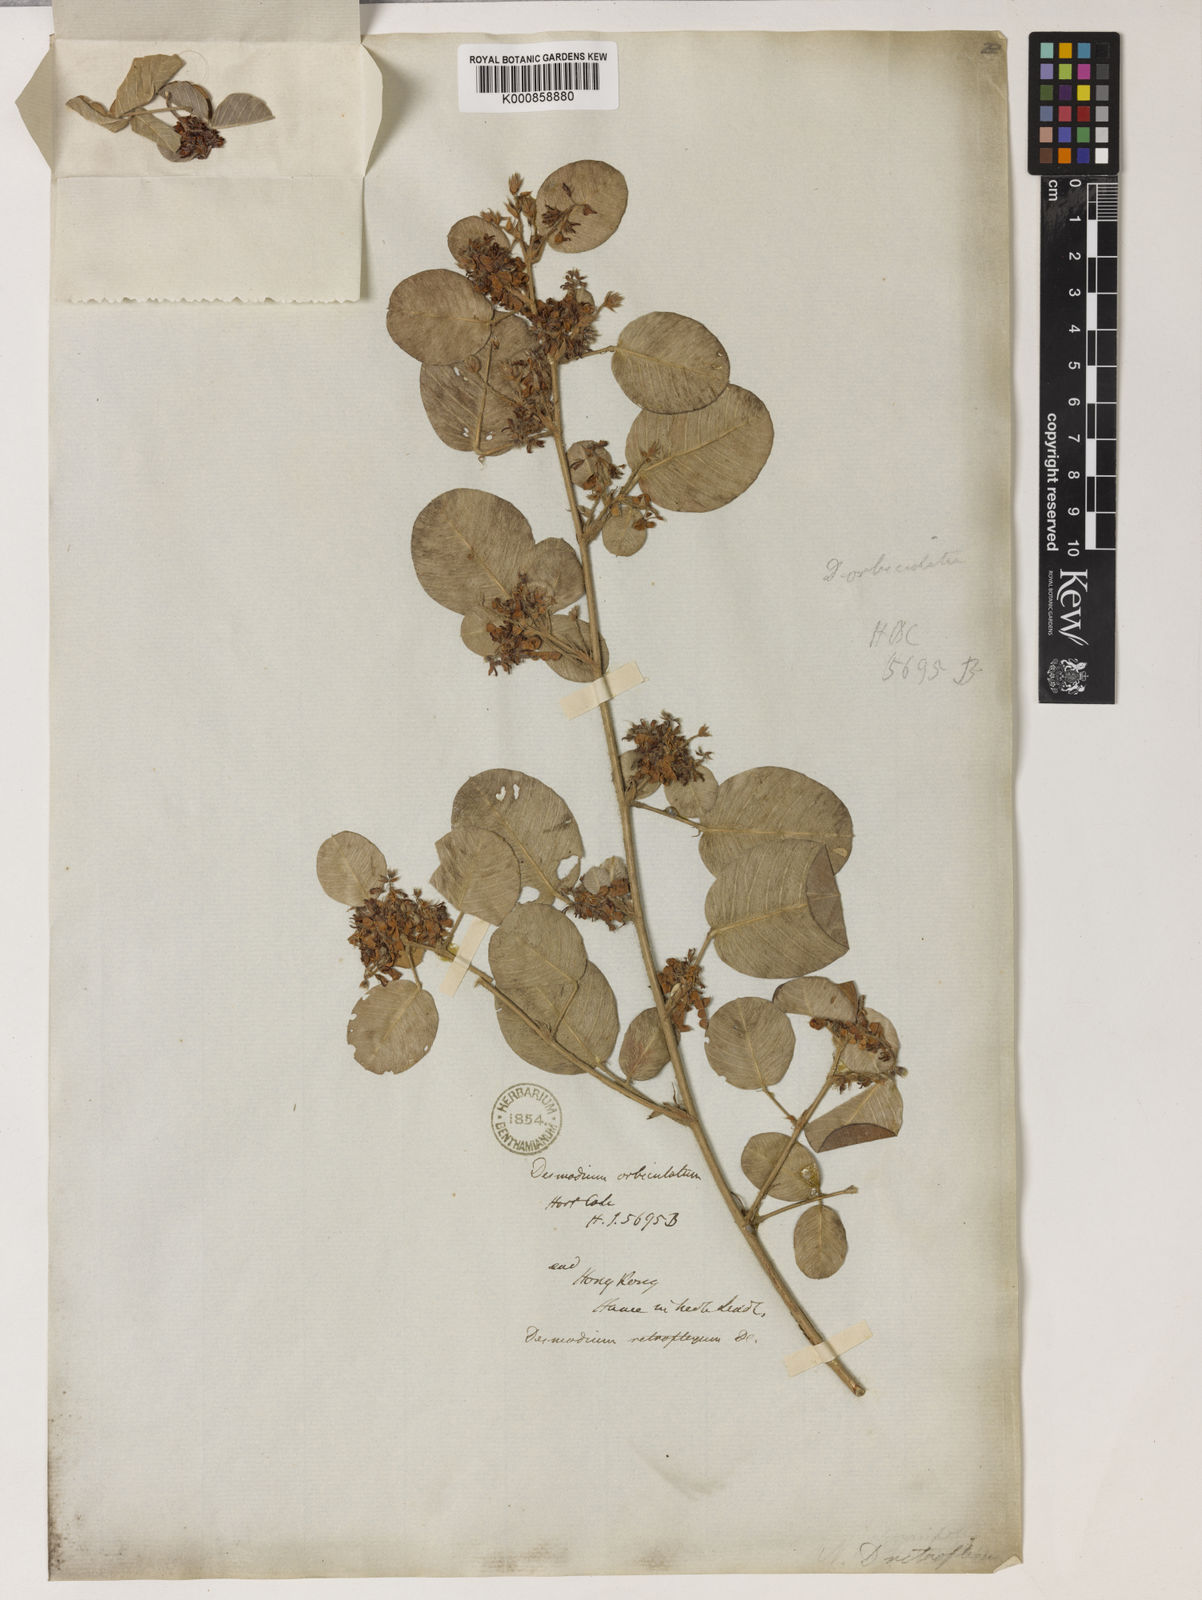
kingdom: Plantae
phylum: Tracheophyta
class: Magnoliopsida
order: Fabales
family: Fabaceae
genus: Grona
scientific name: Grona styracifolia
